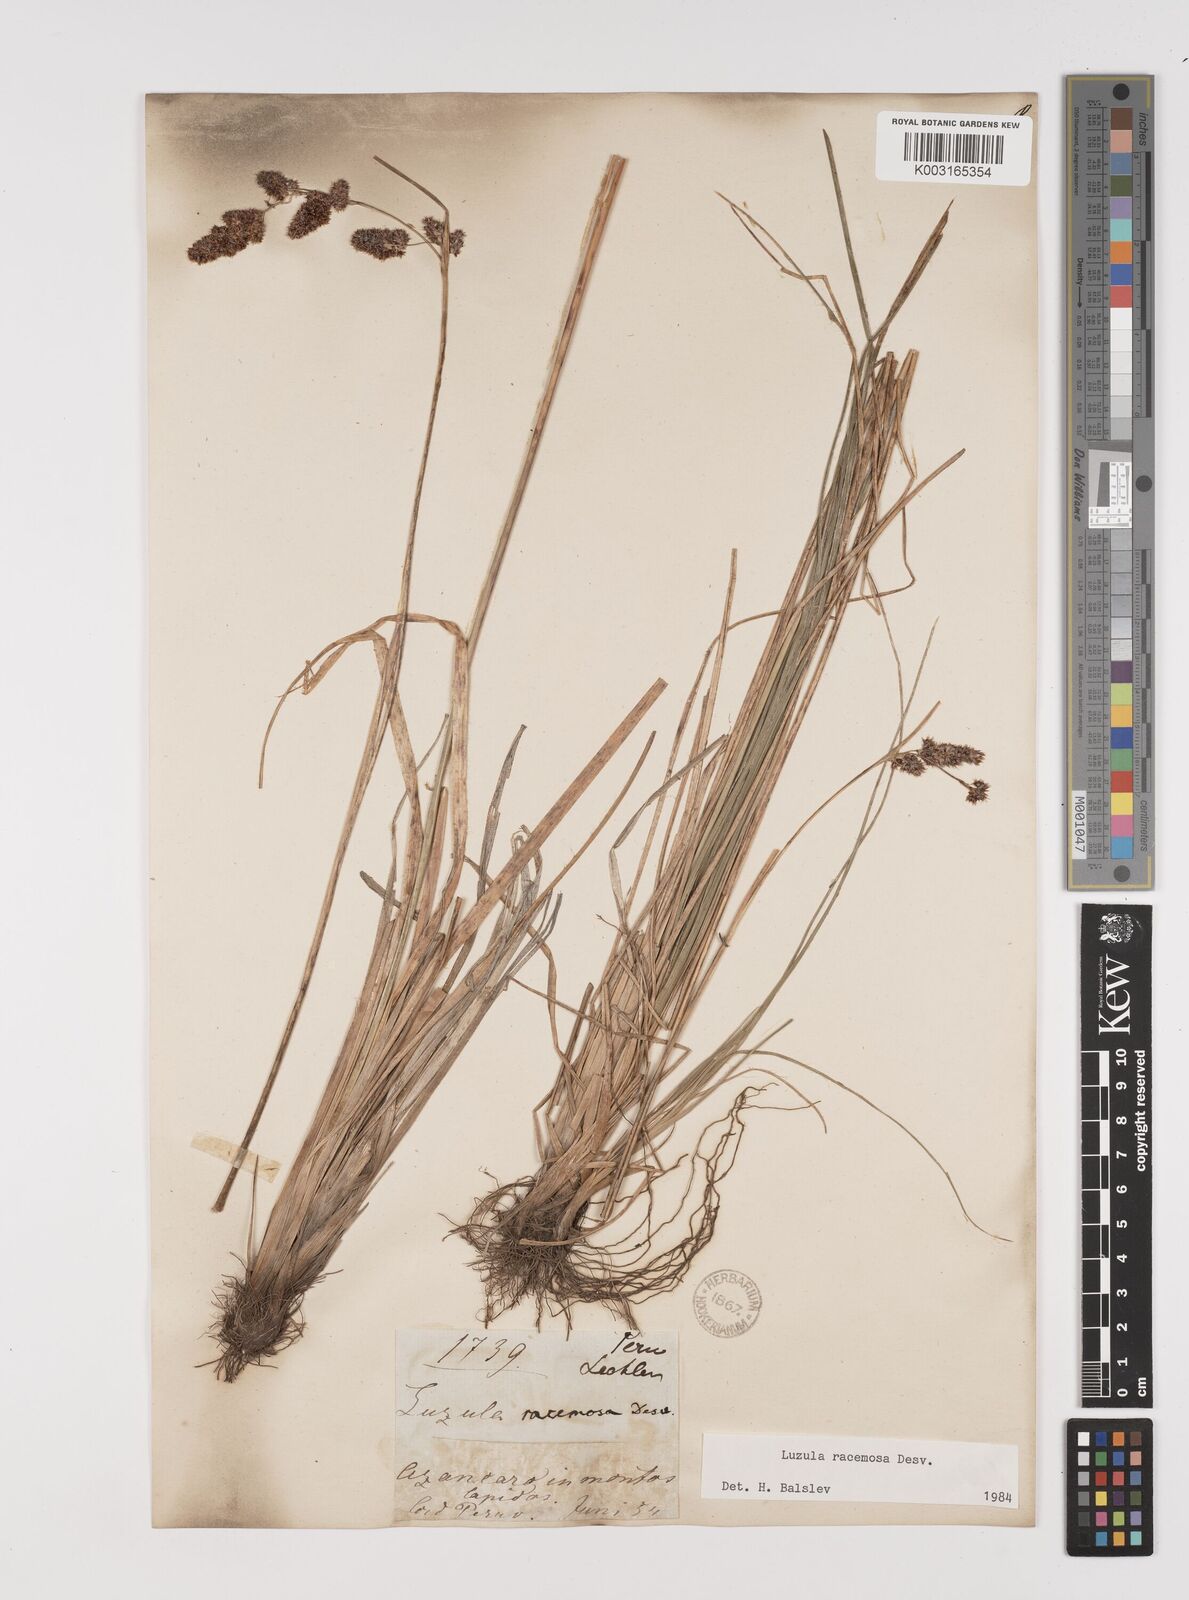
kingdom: Plantae
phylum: Tracheophyta
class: Liliopsida
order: Poales
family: Juncaceae
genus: Luzula
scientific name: Luzula racemosa
